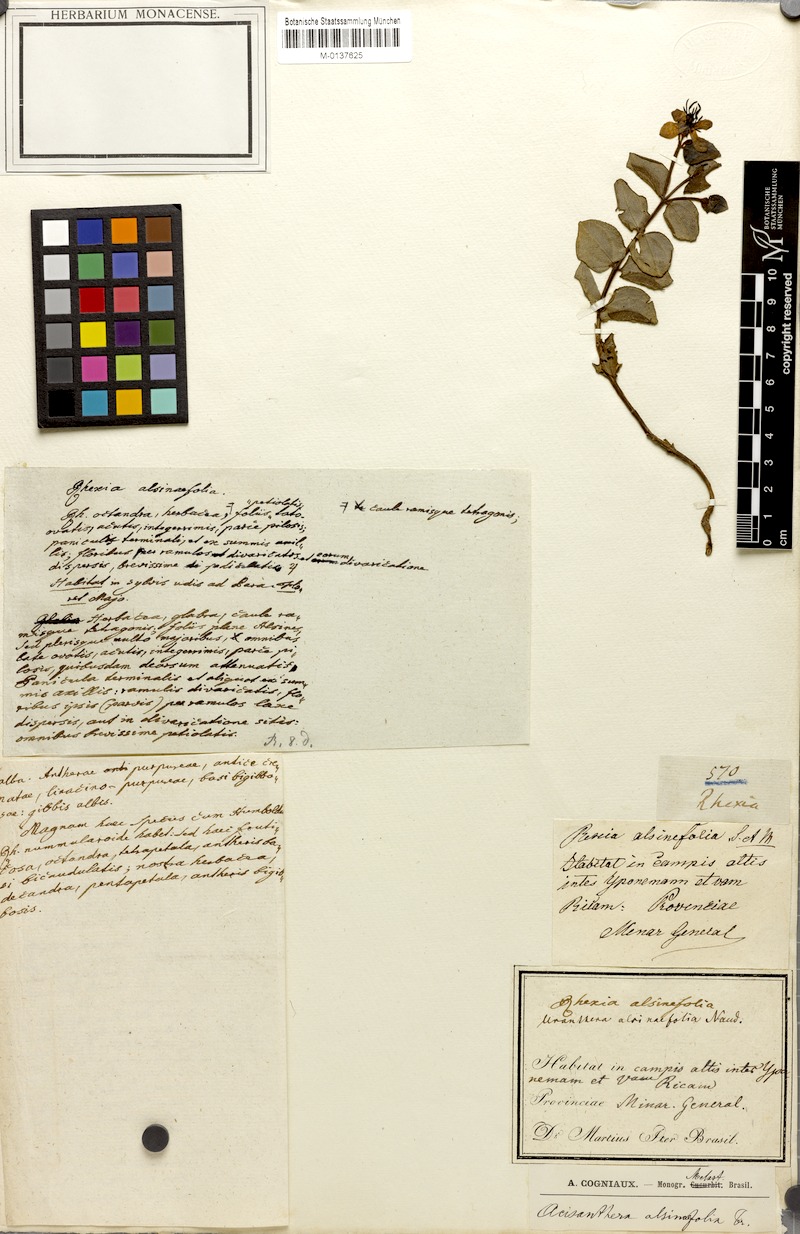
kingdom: Plantae
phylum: Tracheophyta
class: Magnoliopsida
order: Myrtales
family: Melastomataceae
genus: Acisanthera
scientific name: Acisanthera alsinaefolia
